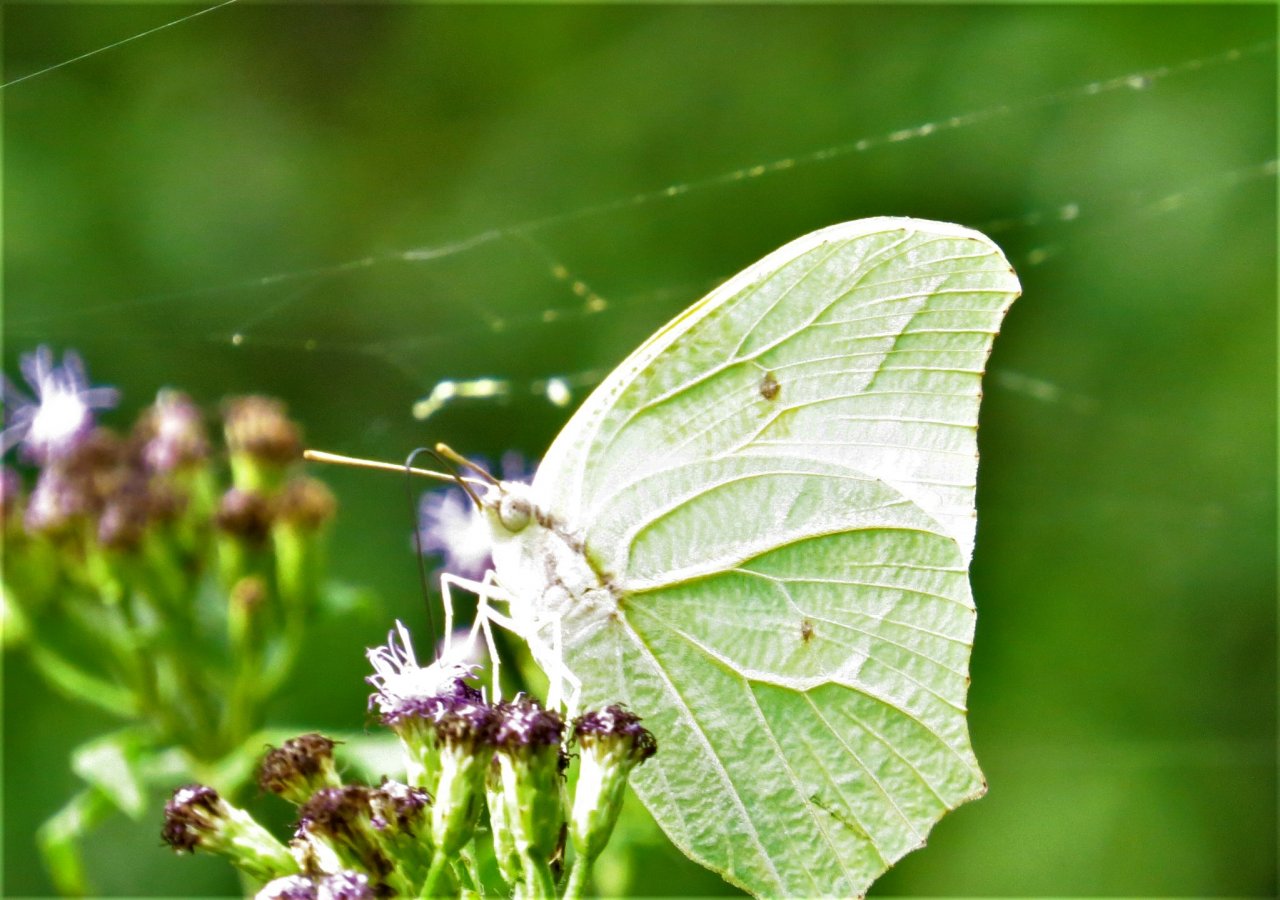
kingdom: Animalia
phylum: Arthropoda
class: Insecta
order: Lepidoptera
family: Pieridae
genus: Anteos
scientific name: Anteos clorinde
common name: White Angled-Sulphur
